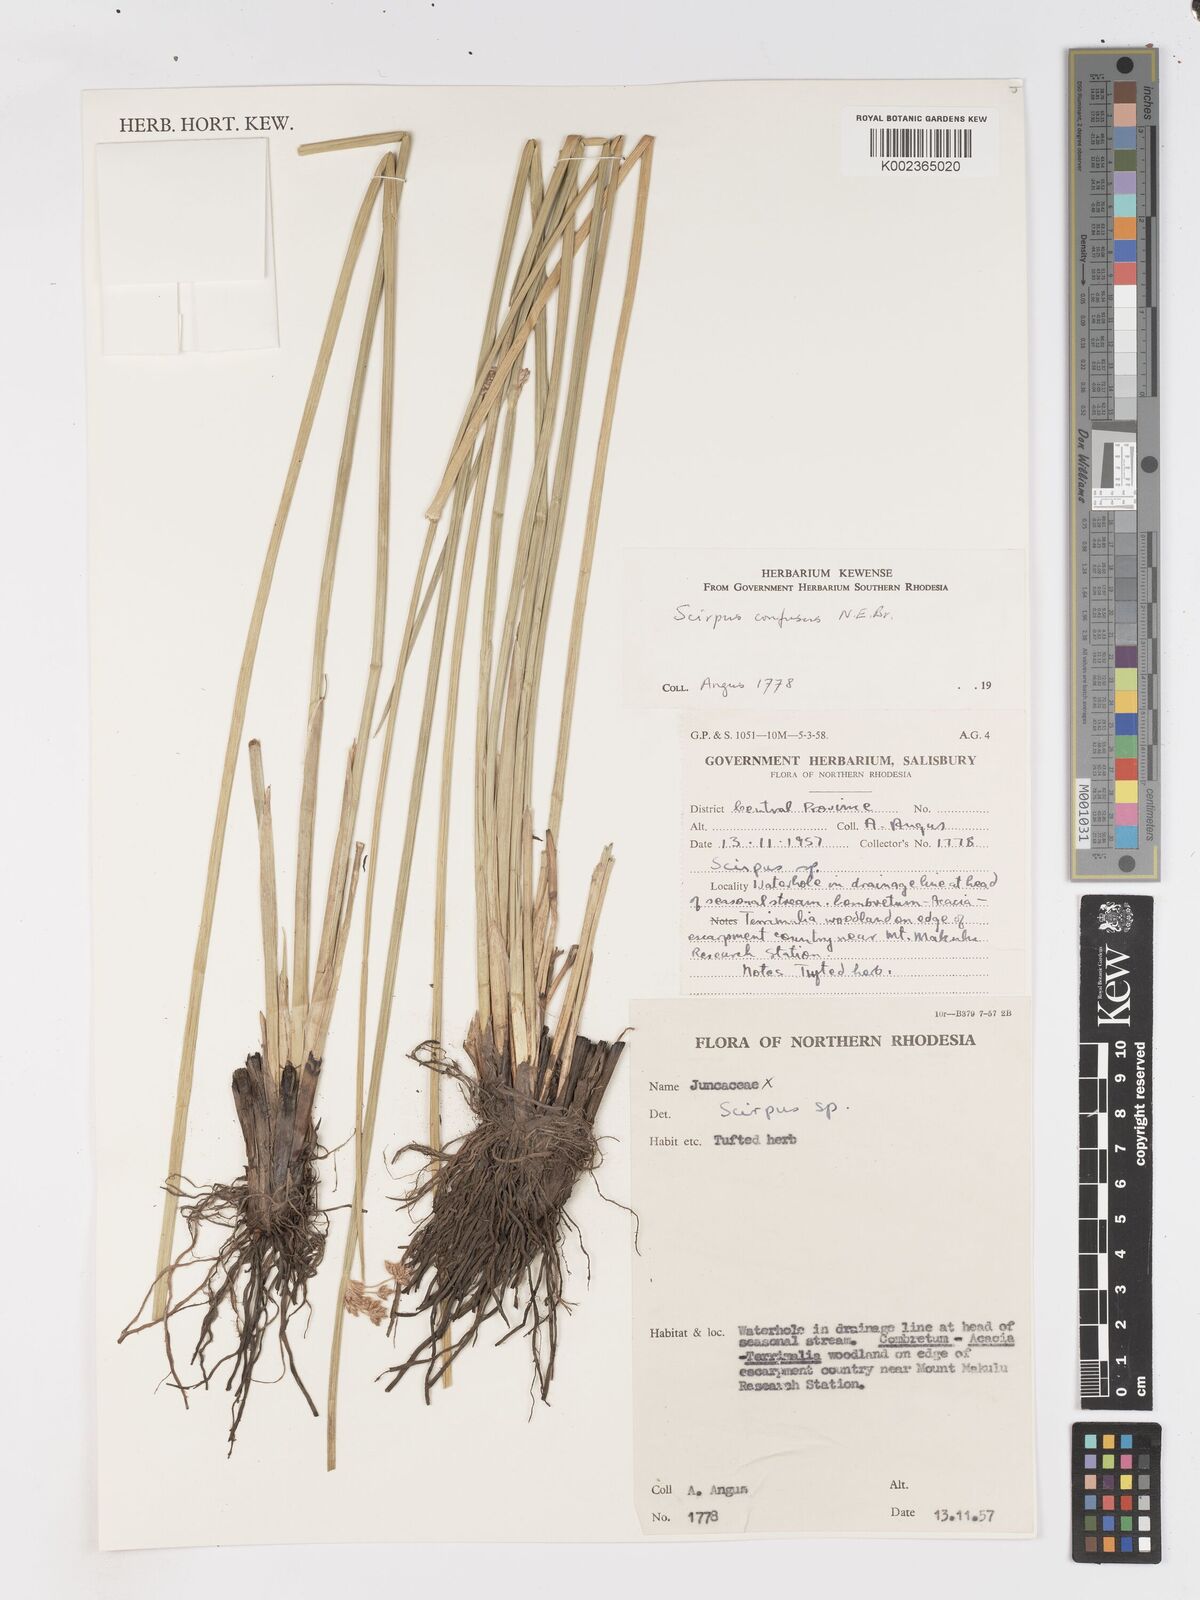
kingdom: Plantae
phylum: Tracheophyta
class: Liliopsida
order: Poales
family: Cyperaceae
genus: Schoenoplectiella
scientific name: Schoenoplectiella confusa
